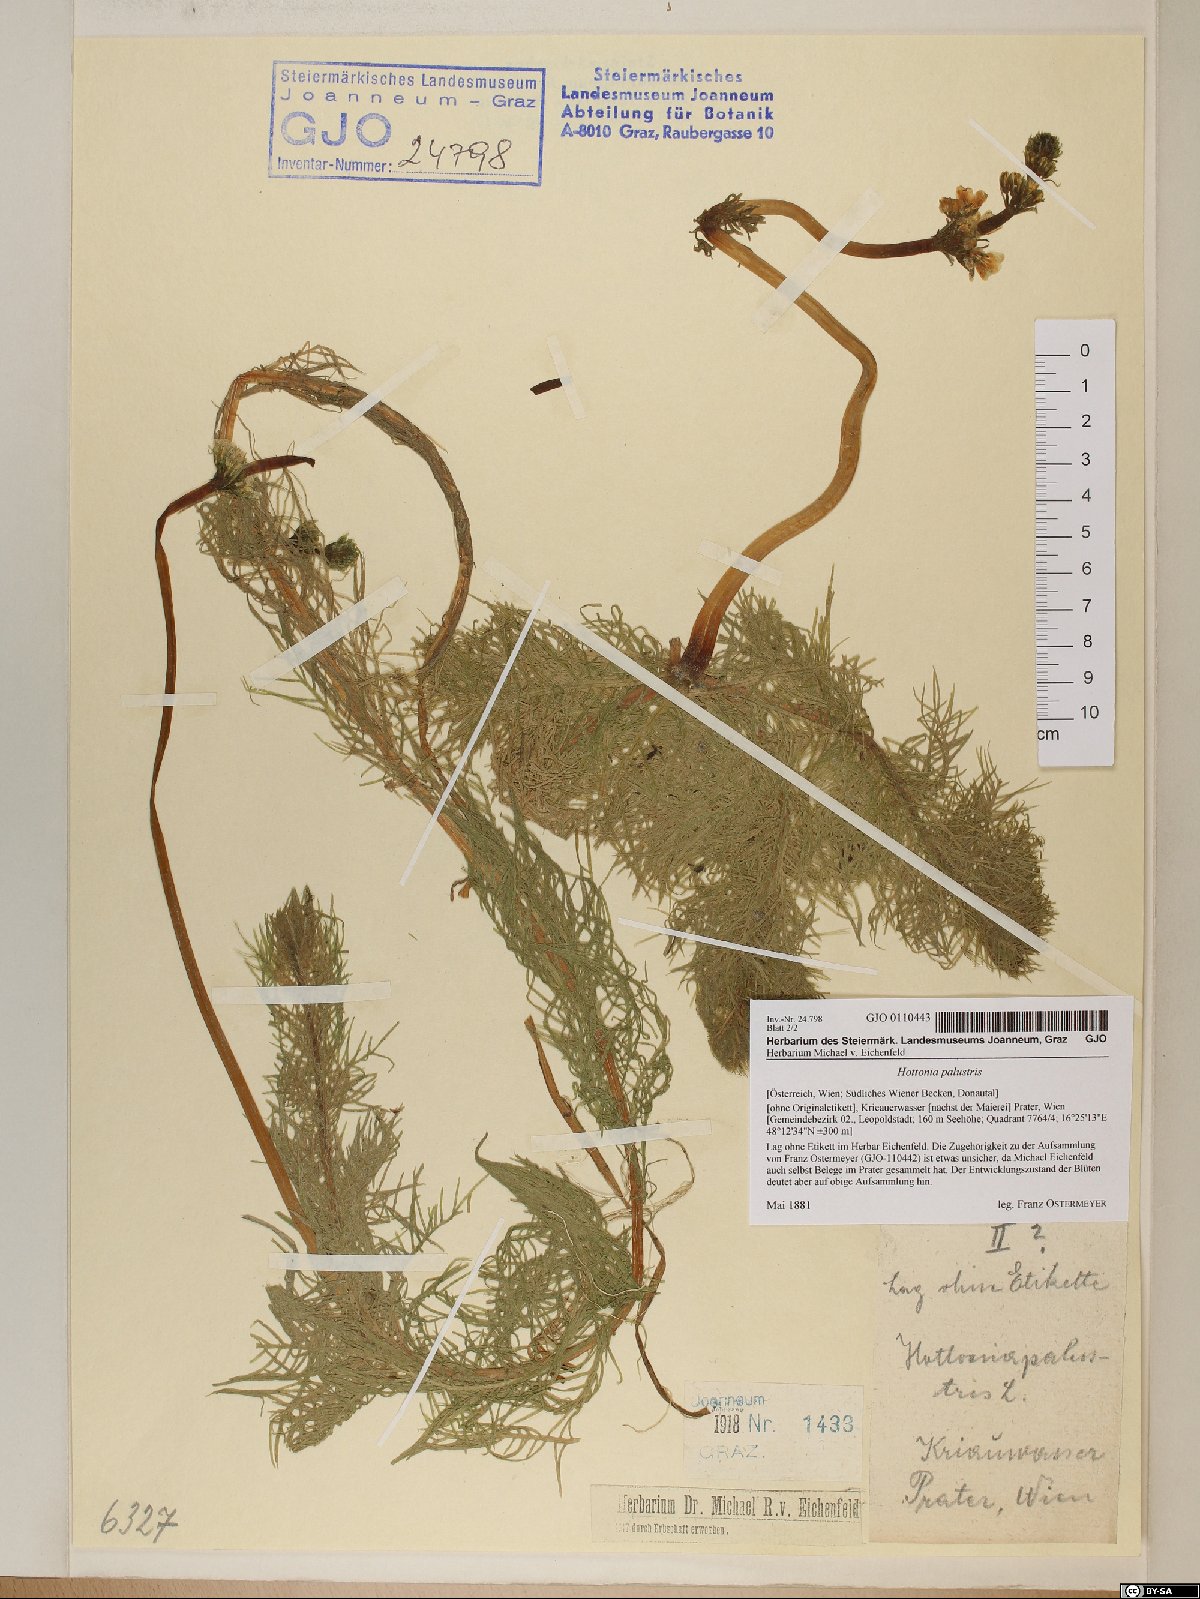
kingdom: Plantae
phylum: Tracheophyta
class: Magnoliopsida
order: Ericales
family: Primulaceae
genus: Hottonia
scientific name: Hottonia palustris
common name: Water-violet
